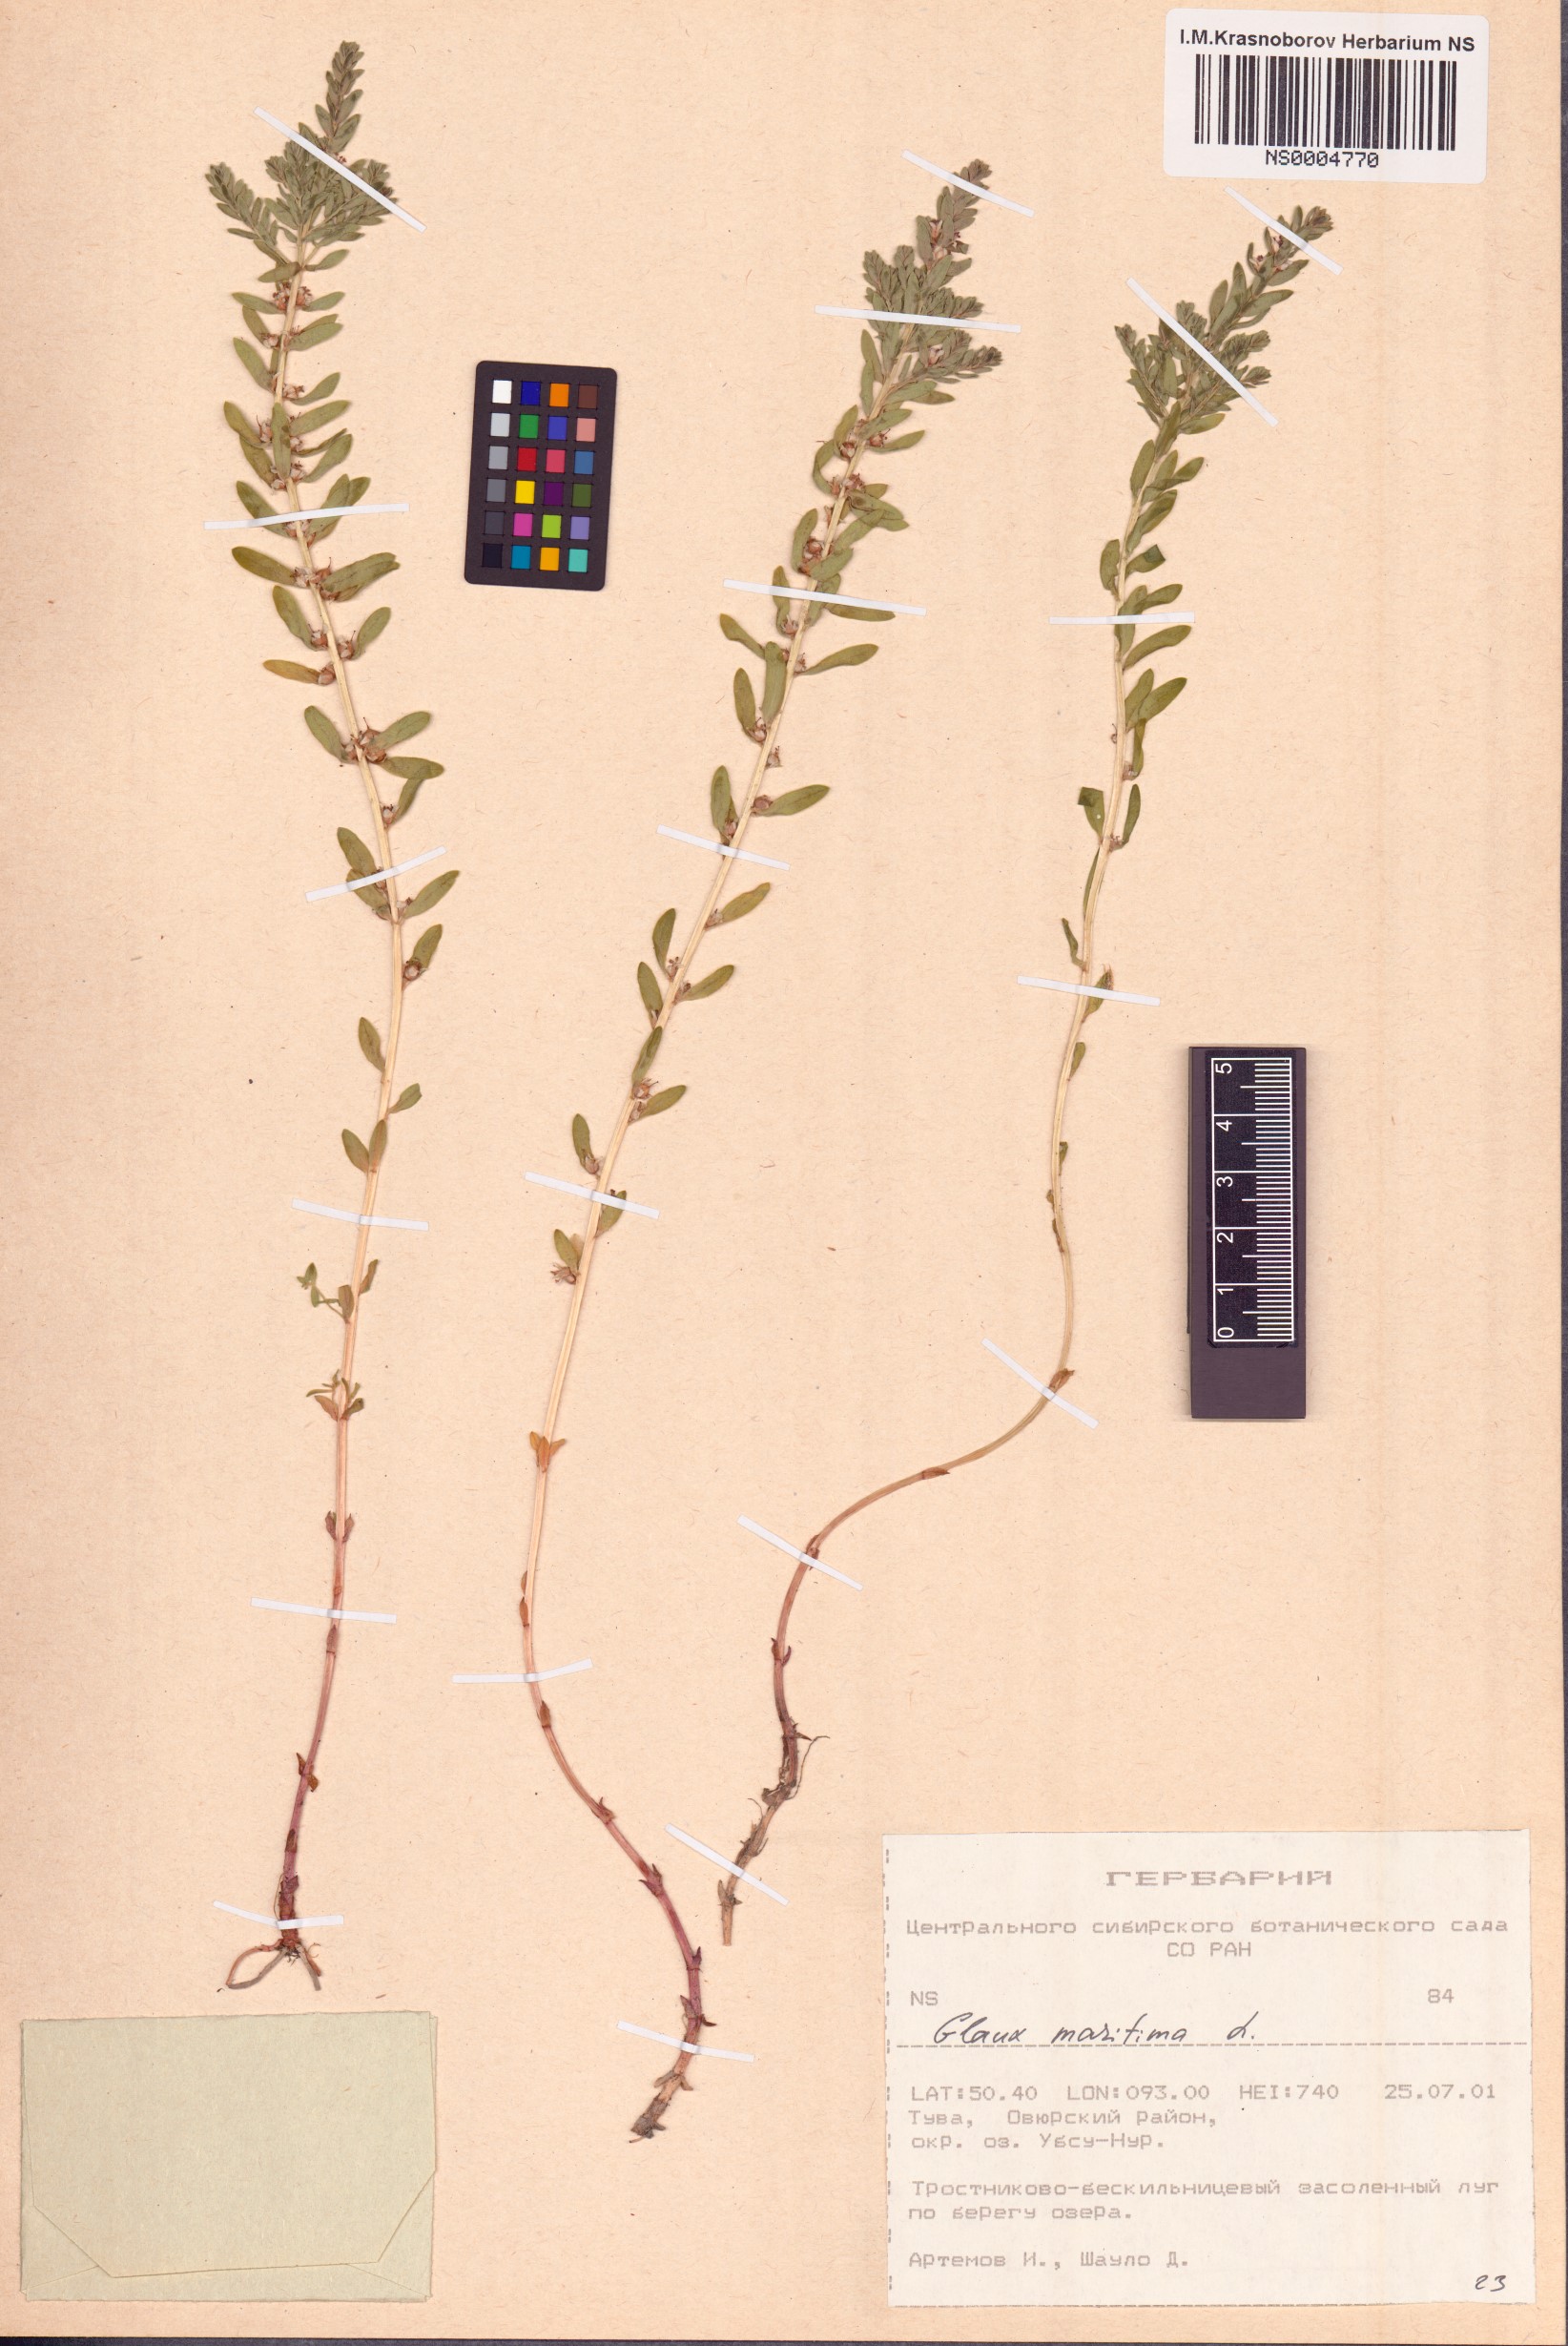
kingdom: Plantae
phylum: Tracheophyta
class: Magnoliopsida
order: Ericales
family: Primulaceae
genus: Lysimachia
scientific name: Lysimachia maritima
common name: Sea milkwort
